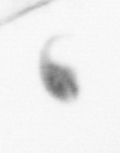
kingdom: Animalia
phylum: Arthropoda
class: Copepoda
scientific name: Copepoda
